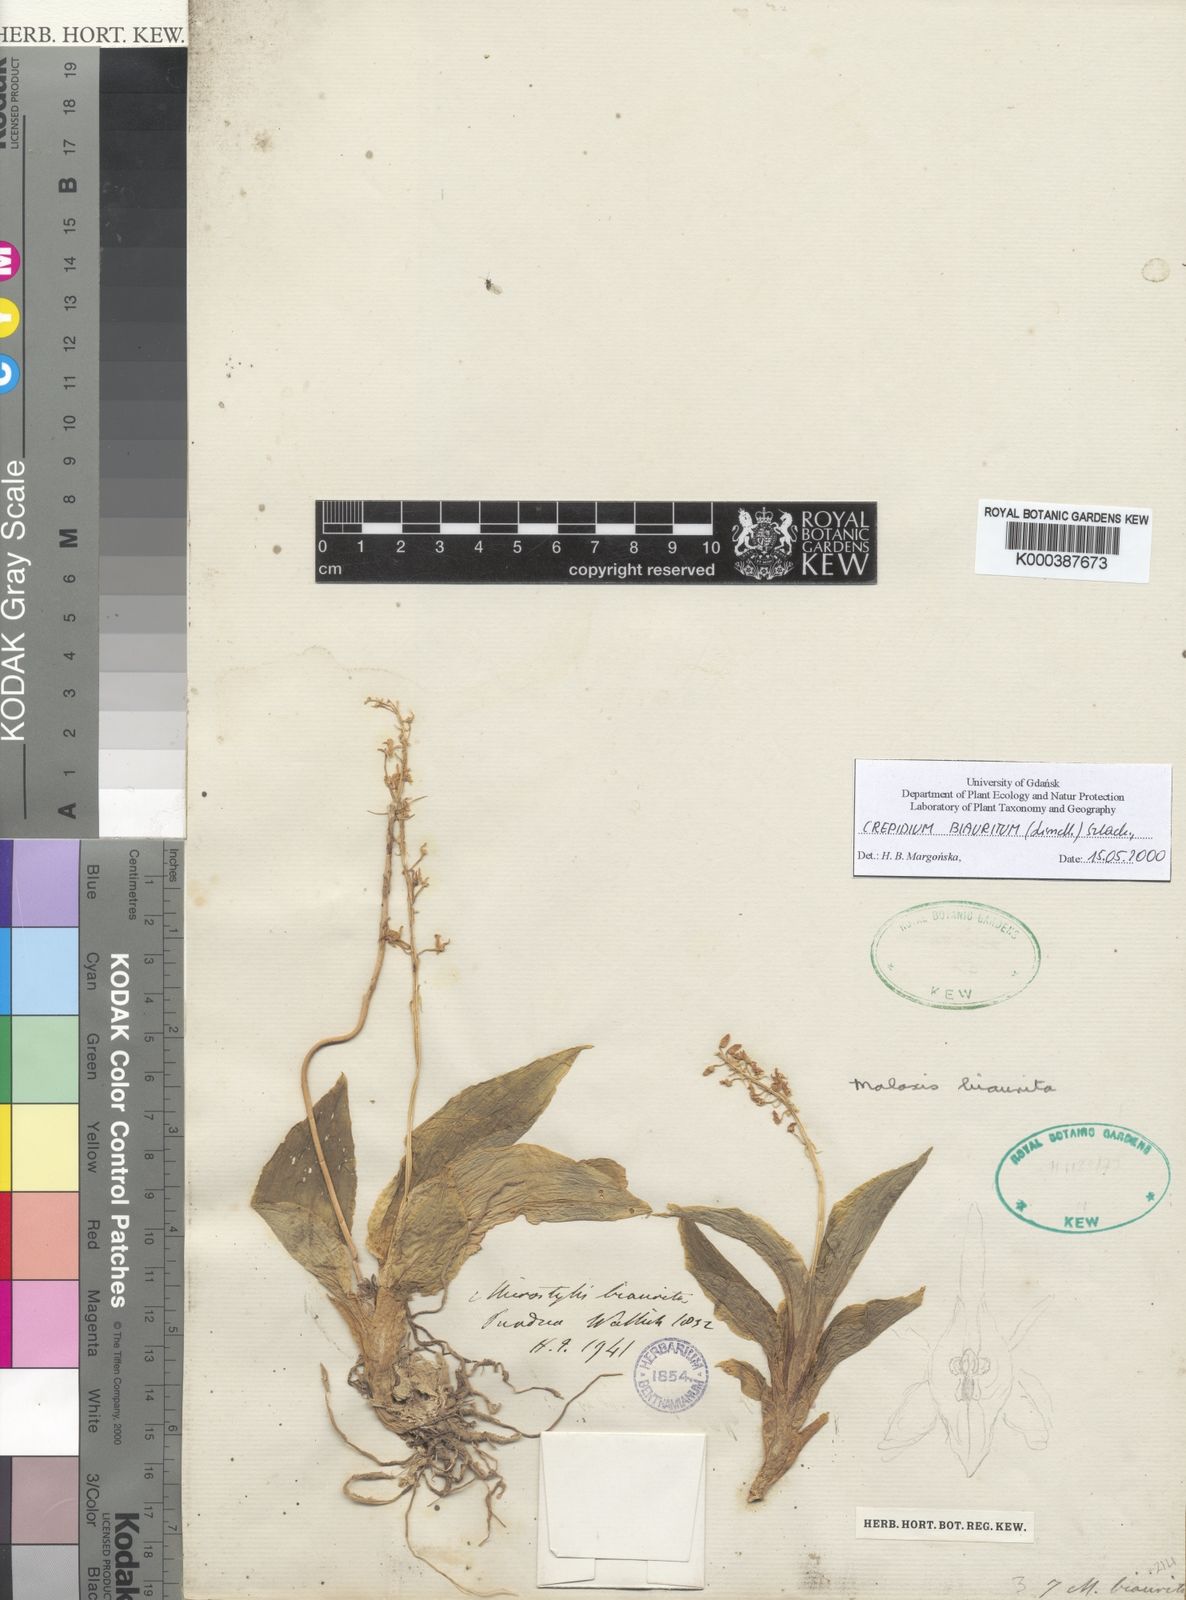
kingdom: Plantae
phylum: Tracheophyta
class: Liliopsida
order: Asparagales
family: Orchidaceae
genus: Crepidium
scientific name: Crepidium biauritum
